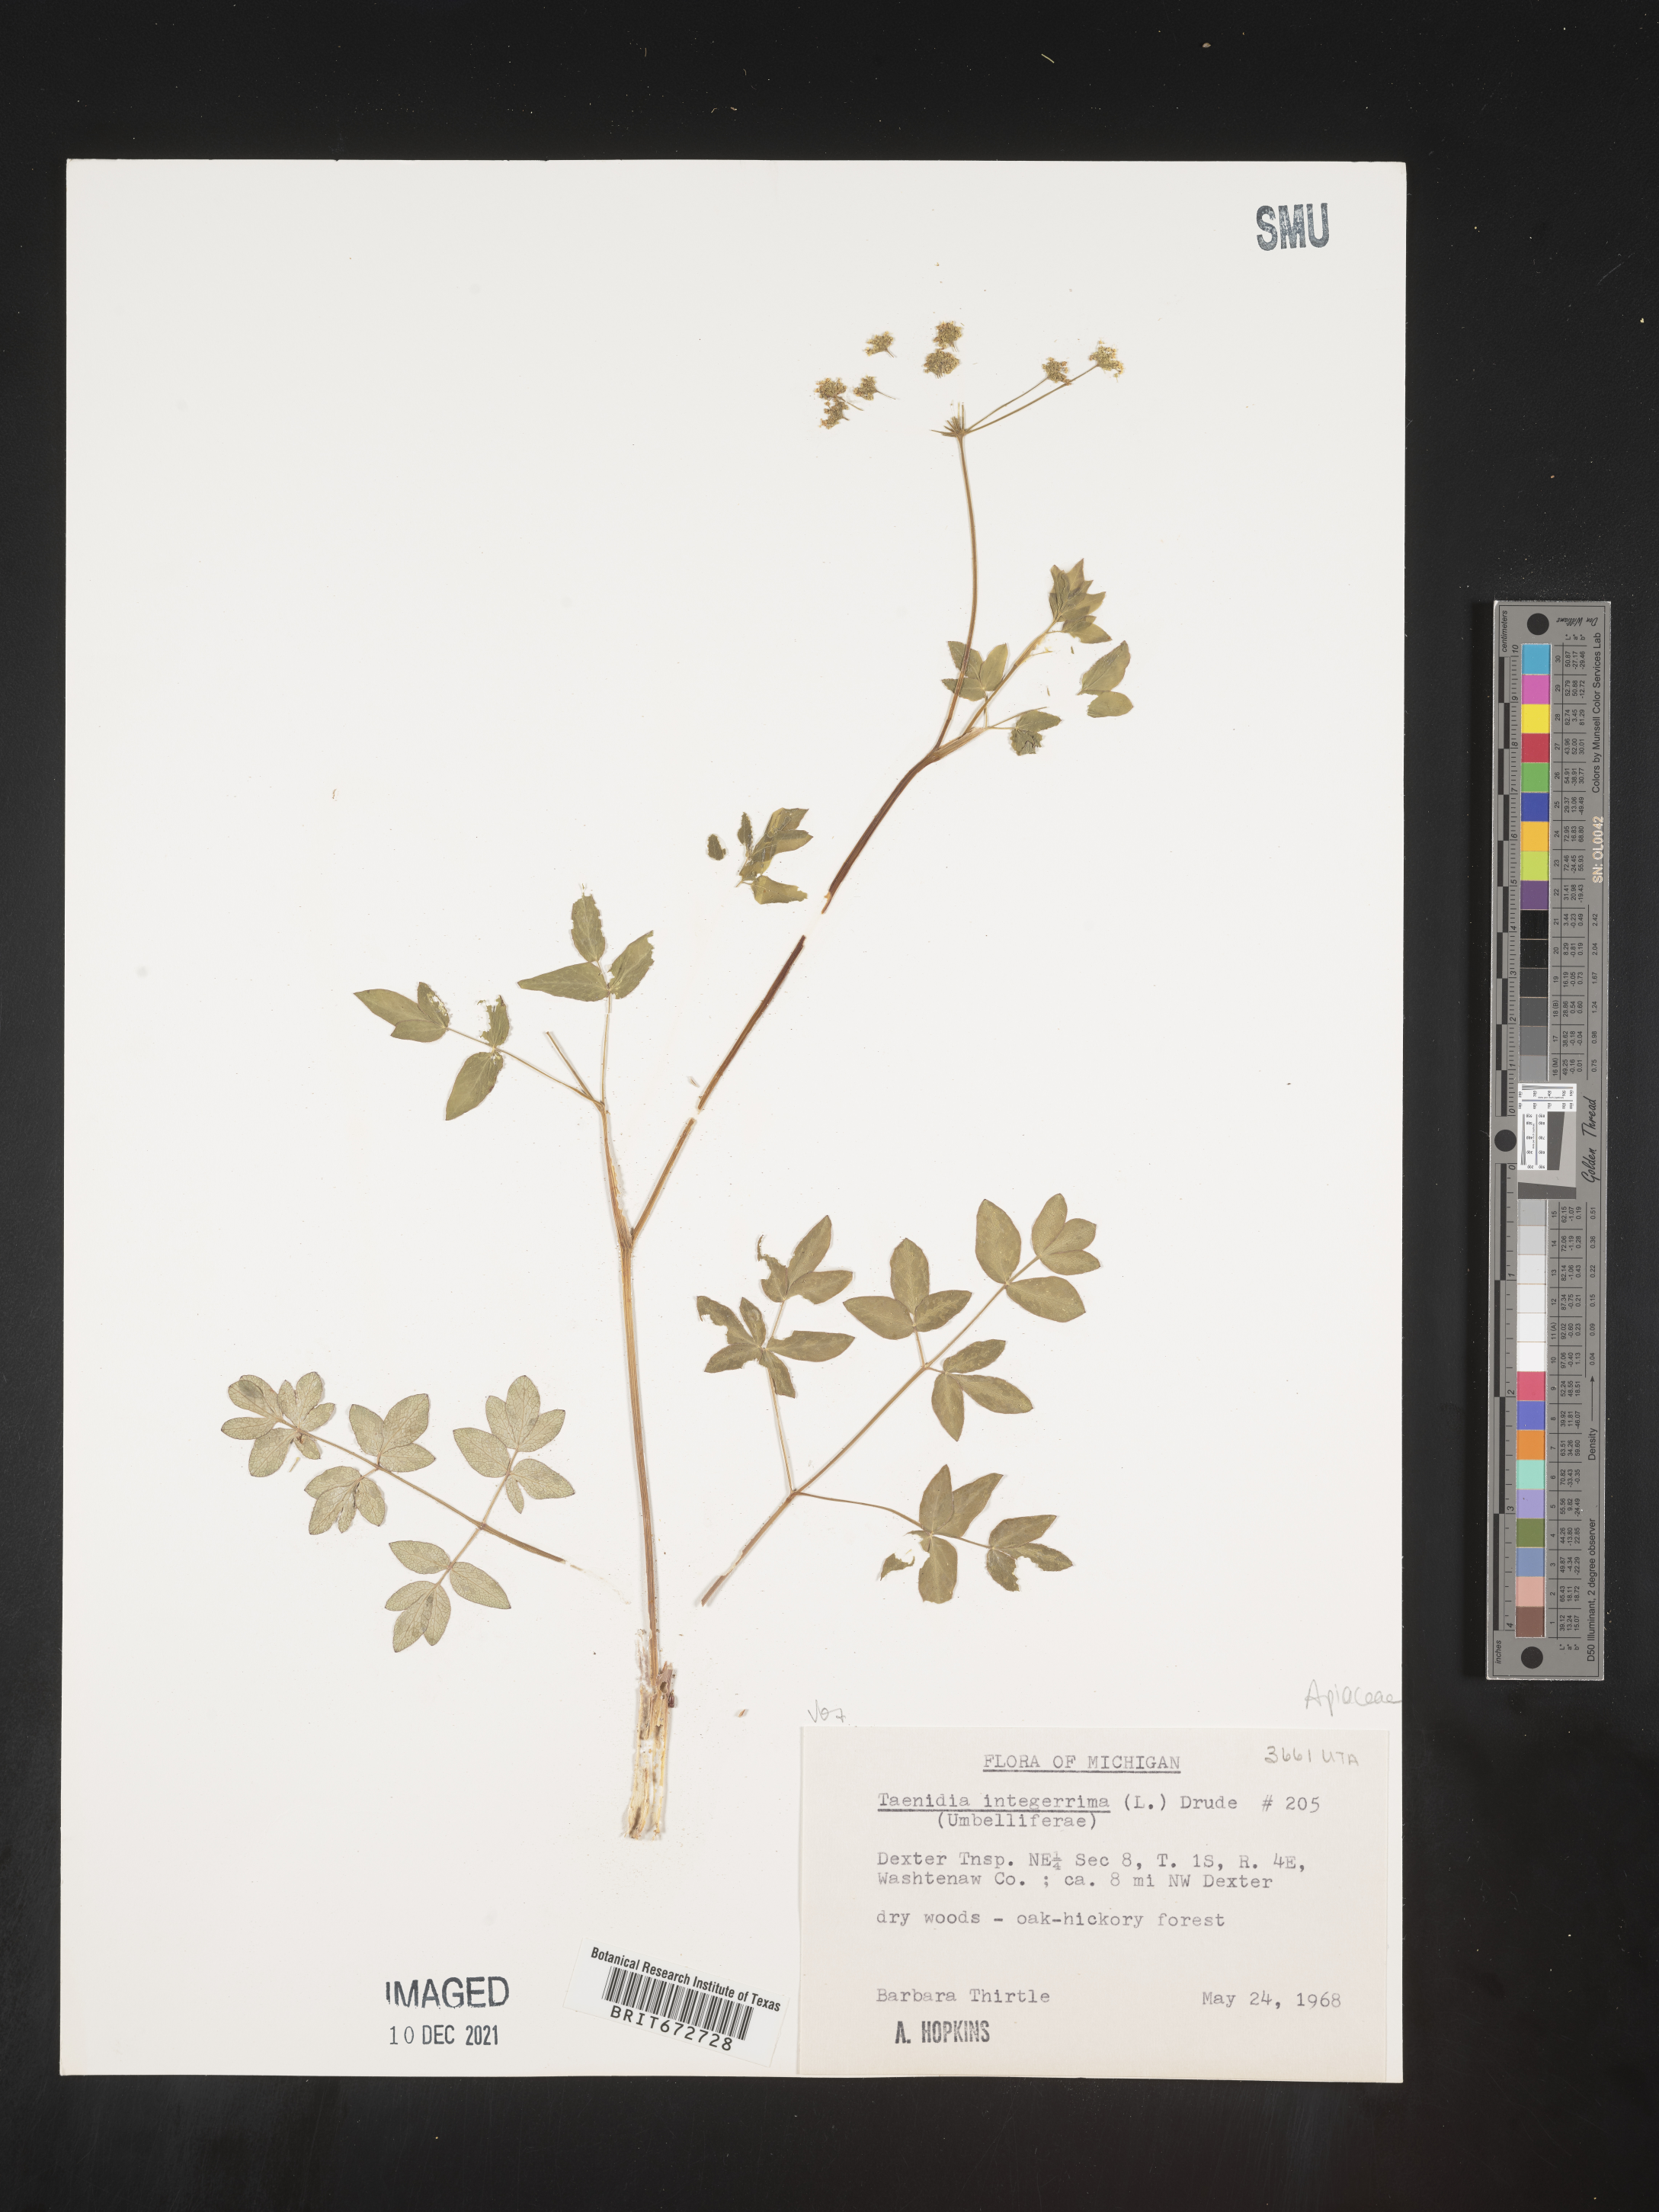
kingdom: Plantae
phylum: Tracheophyta
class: Magnoliopsida
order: Apiales
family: Apiaceae
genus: Taenidia
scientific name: Taenidia
